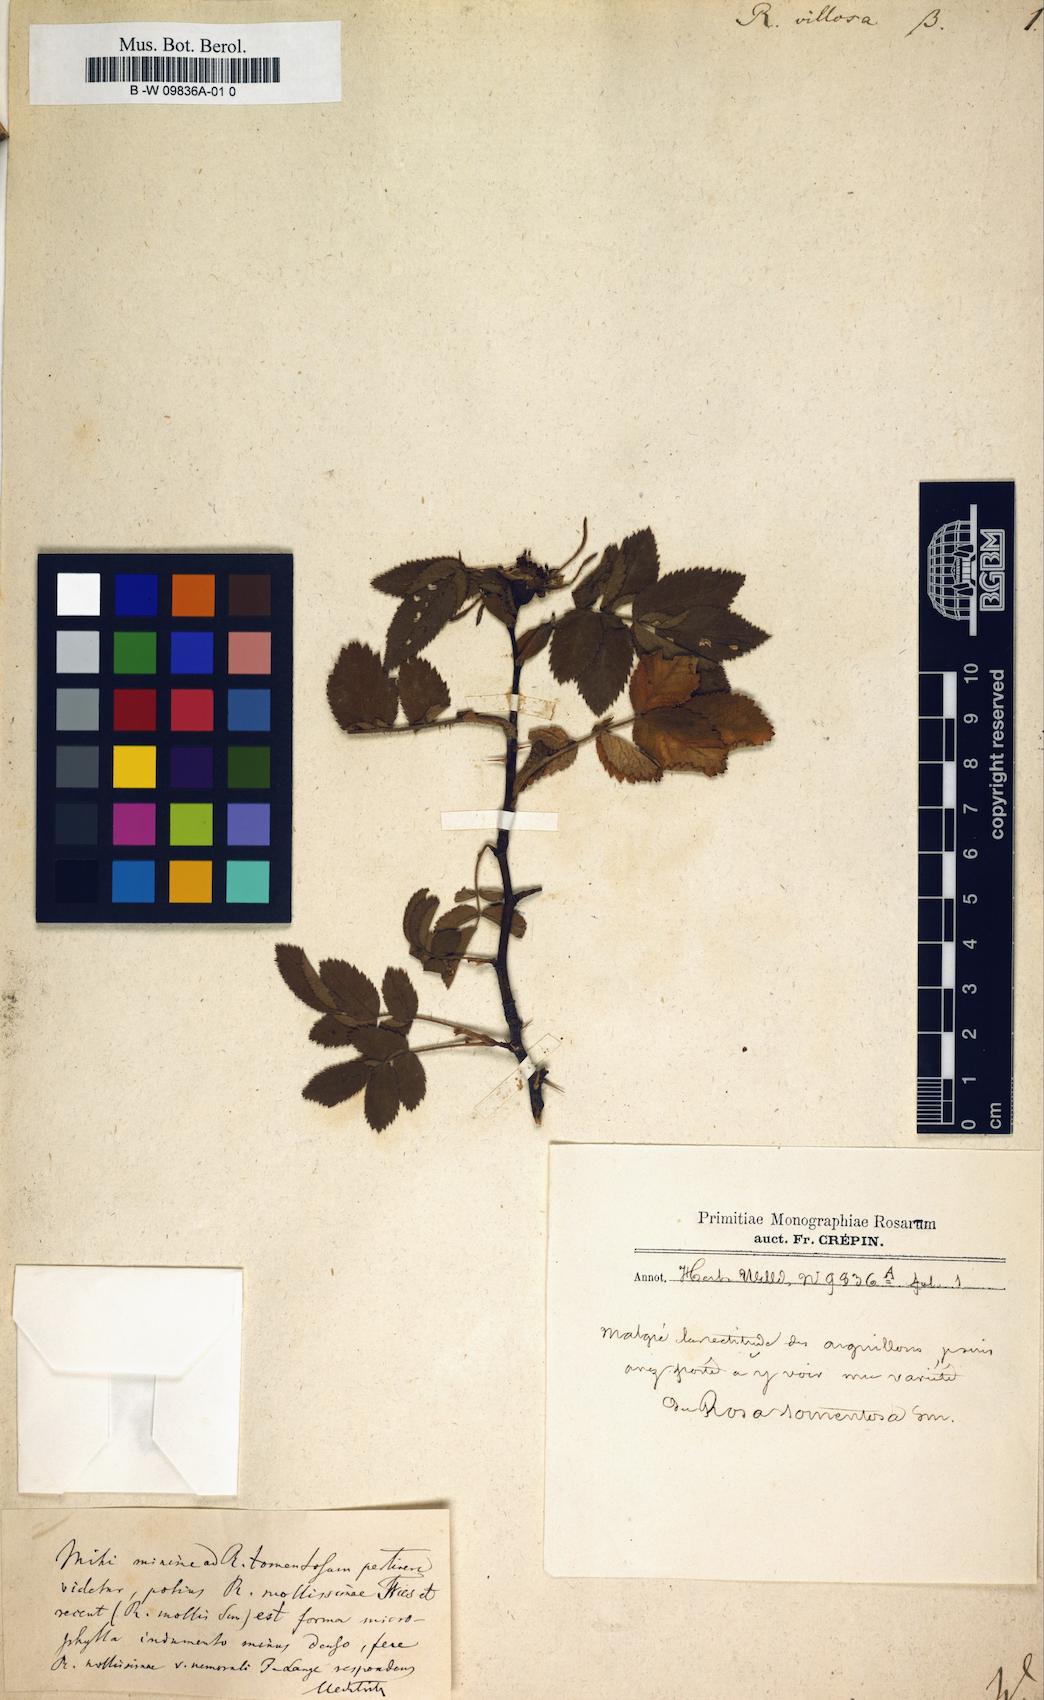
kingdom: Plantae
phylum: Tracheophyta
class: Magnoliopsida
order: Rosales
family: Rosaceae
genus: Rosa
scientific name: Rosa villosa
